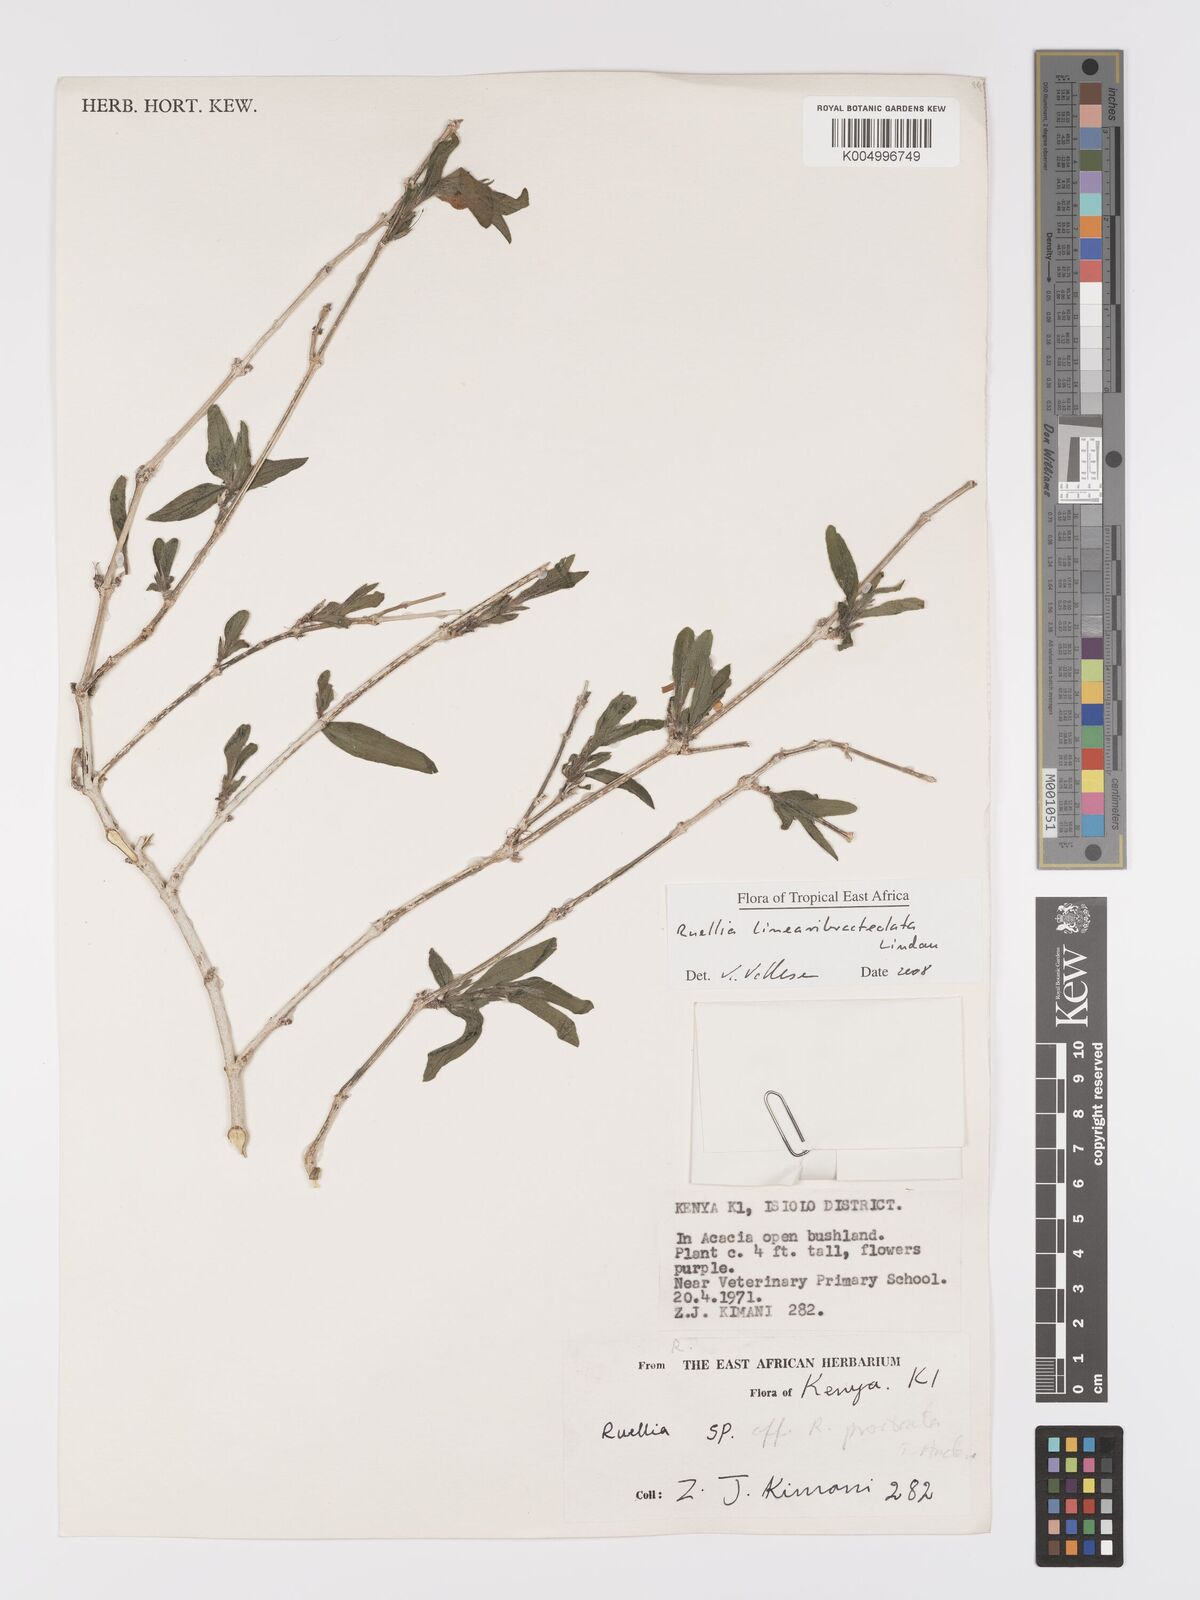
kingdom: Plantae
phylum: Tracheophyta
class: Magnoliopsida
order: Lamiales
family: Acanthaceae
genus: Ruellia
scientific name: Ruellia linearibracteolata
